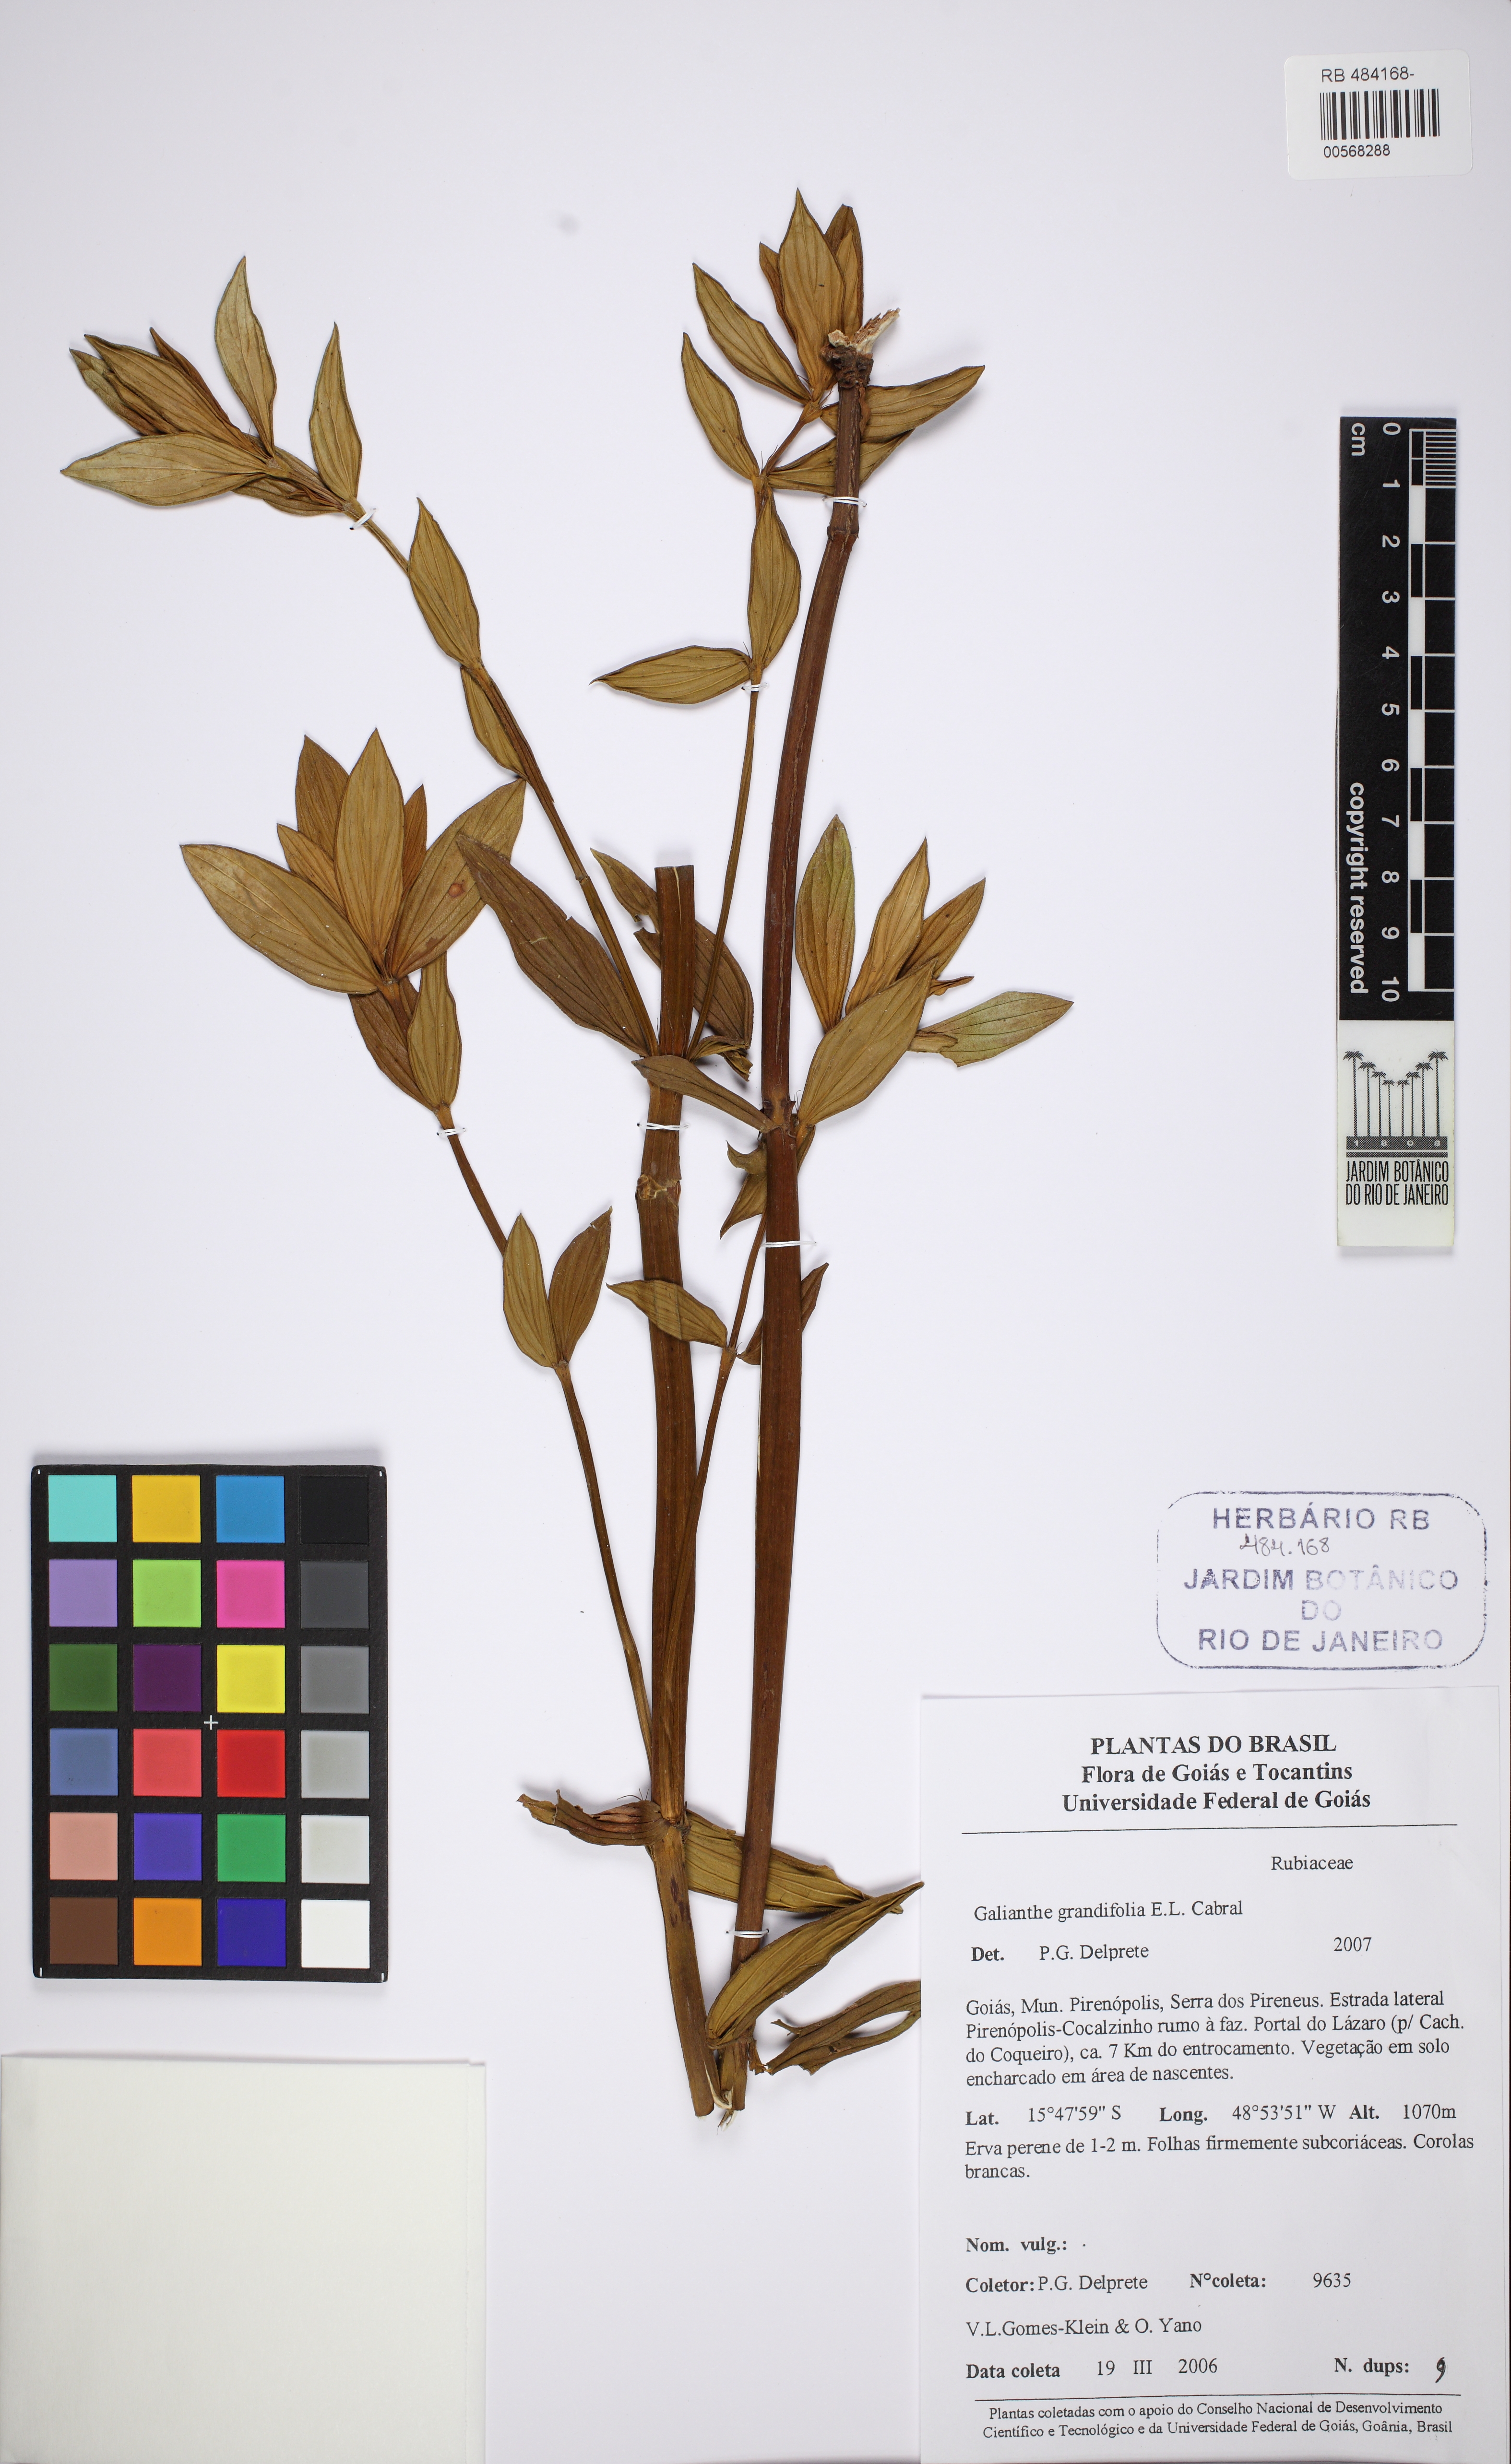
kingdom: Plantae
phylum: Tracheophyta
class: Magnoliopsida
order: Gentianales
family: Rubiaceae
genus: Galianthe
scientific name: Galianthe macedoi
